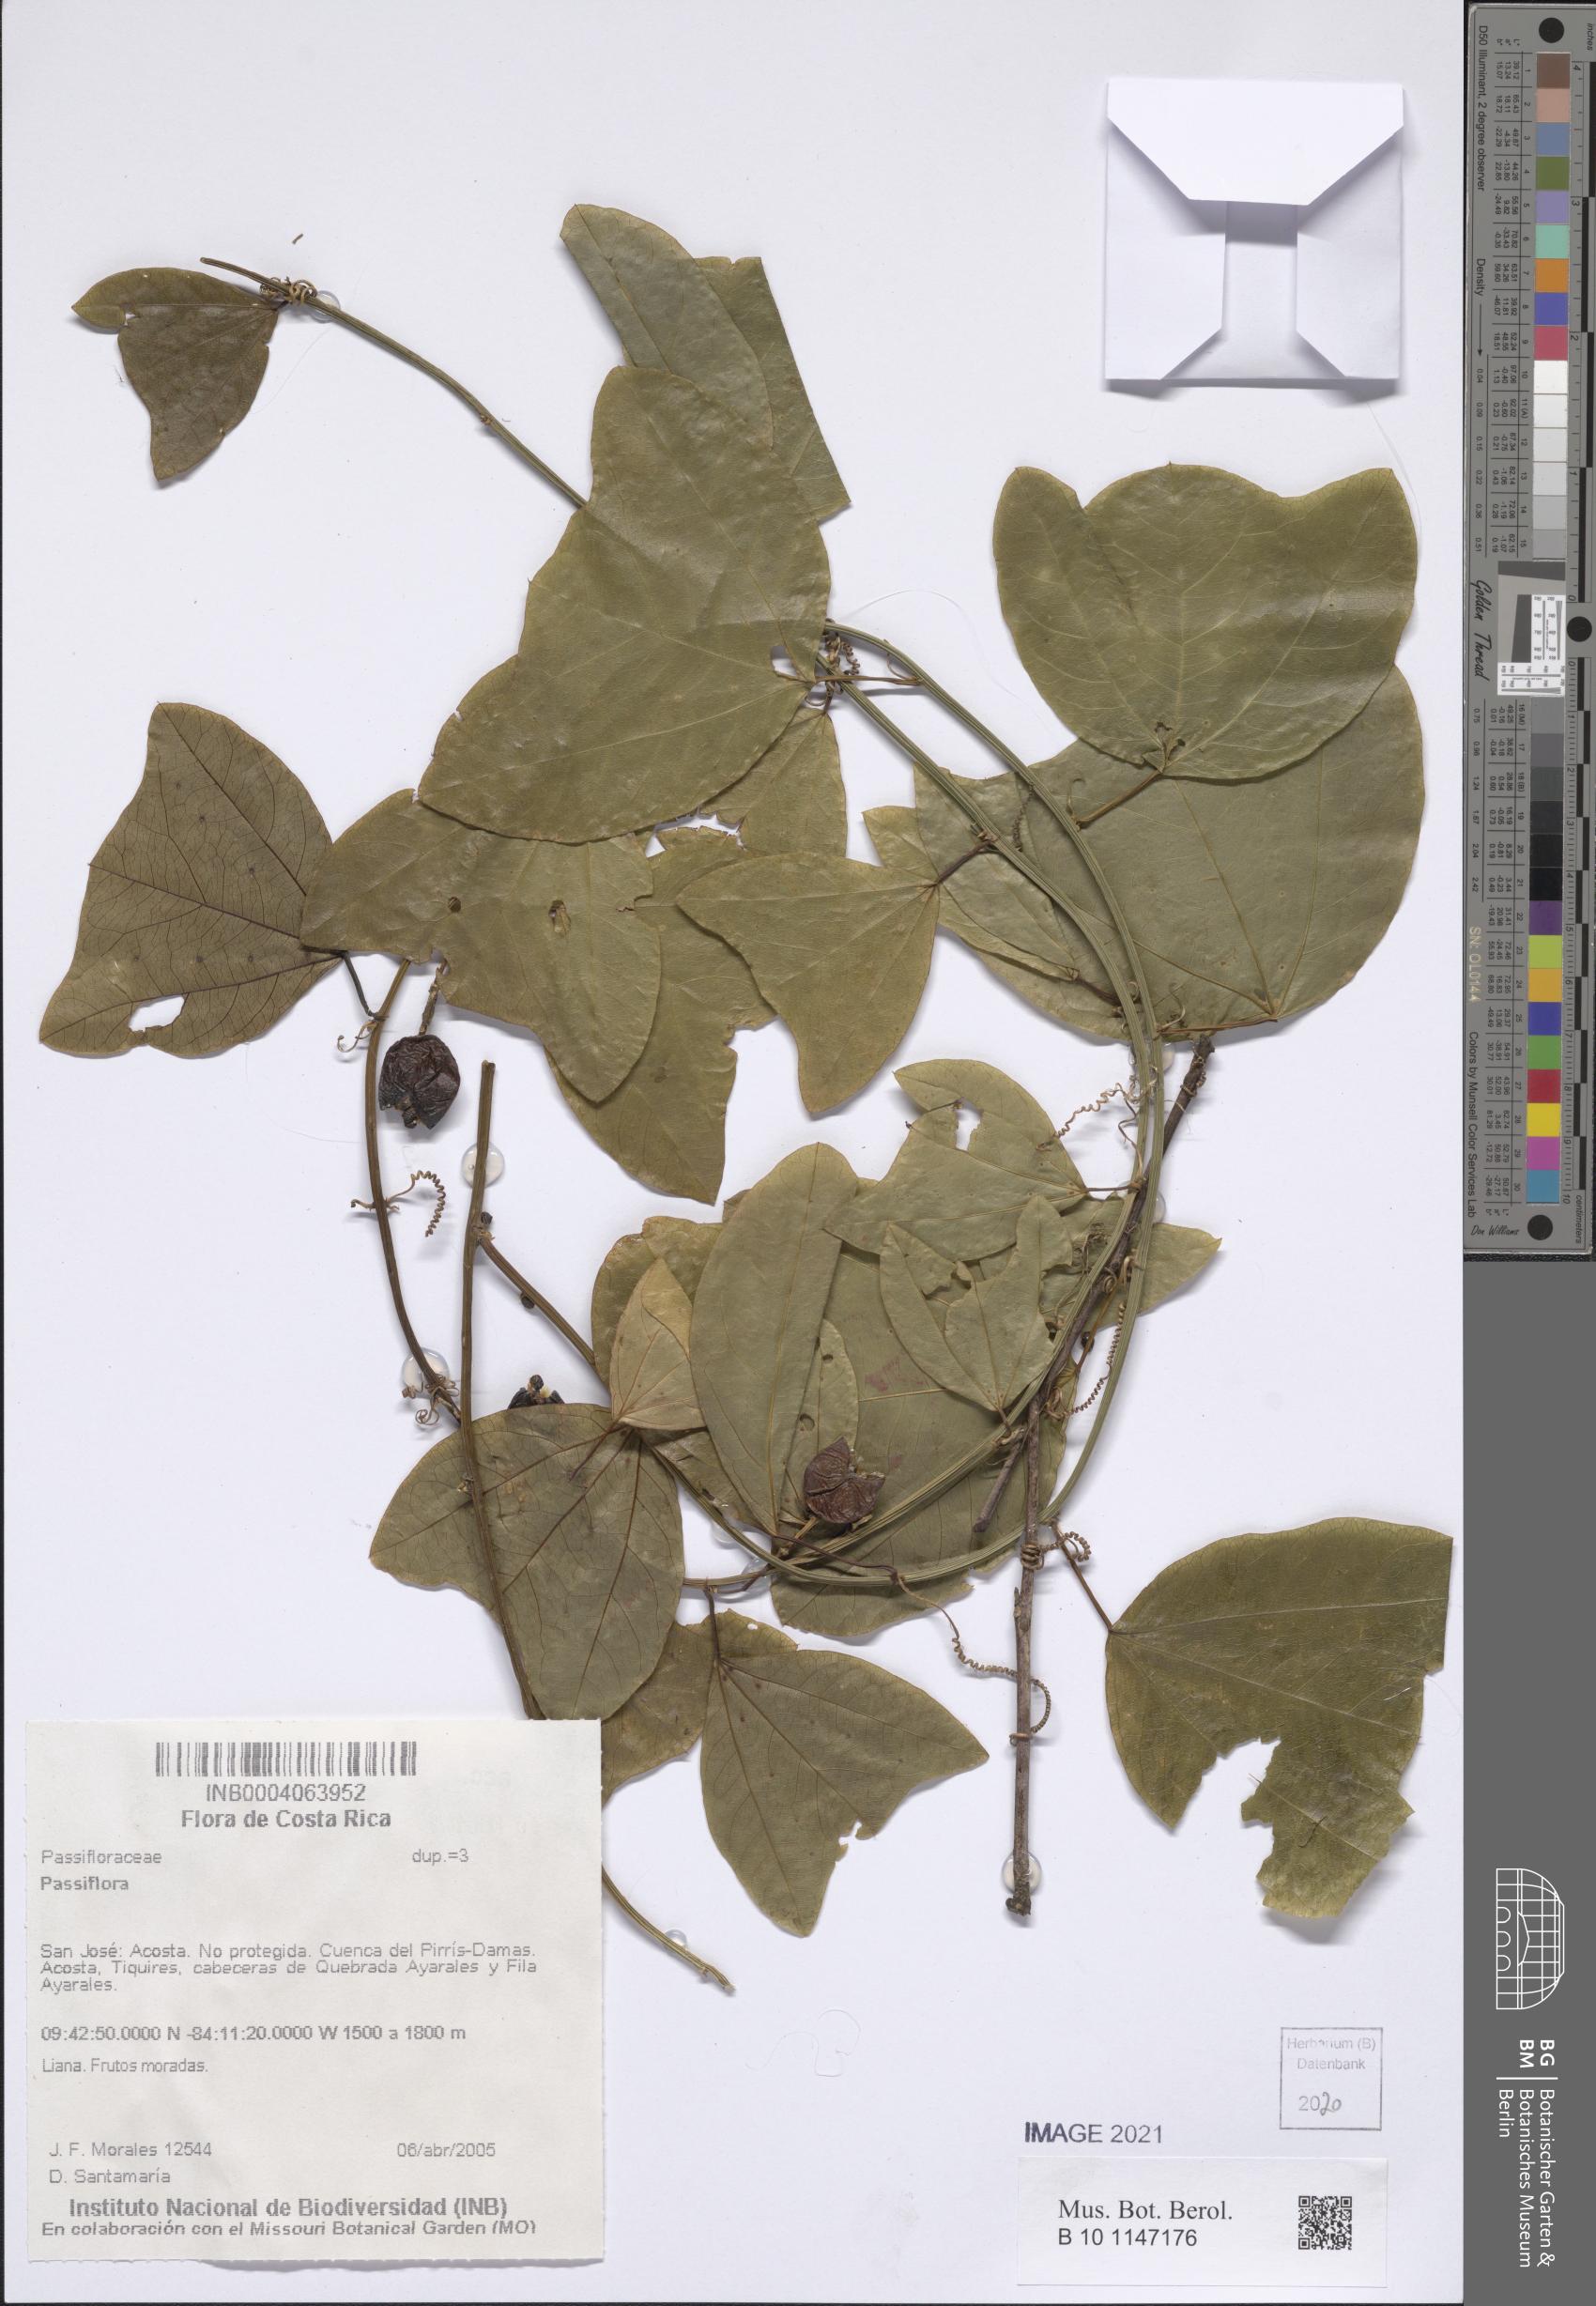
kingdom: Plantae
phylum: Tracheophyta
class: Magnoliopsida
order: Malpighiales
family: Passifloraceae
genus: Passiflora
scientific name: Passiflora
